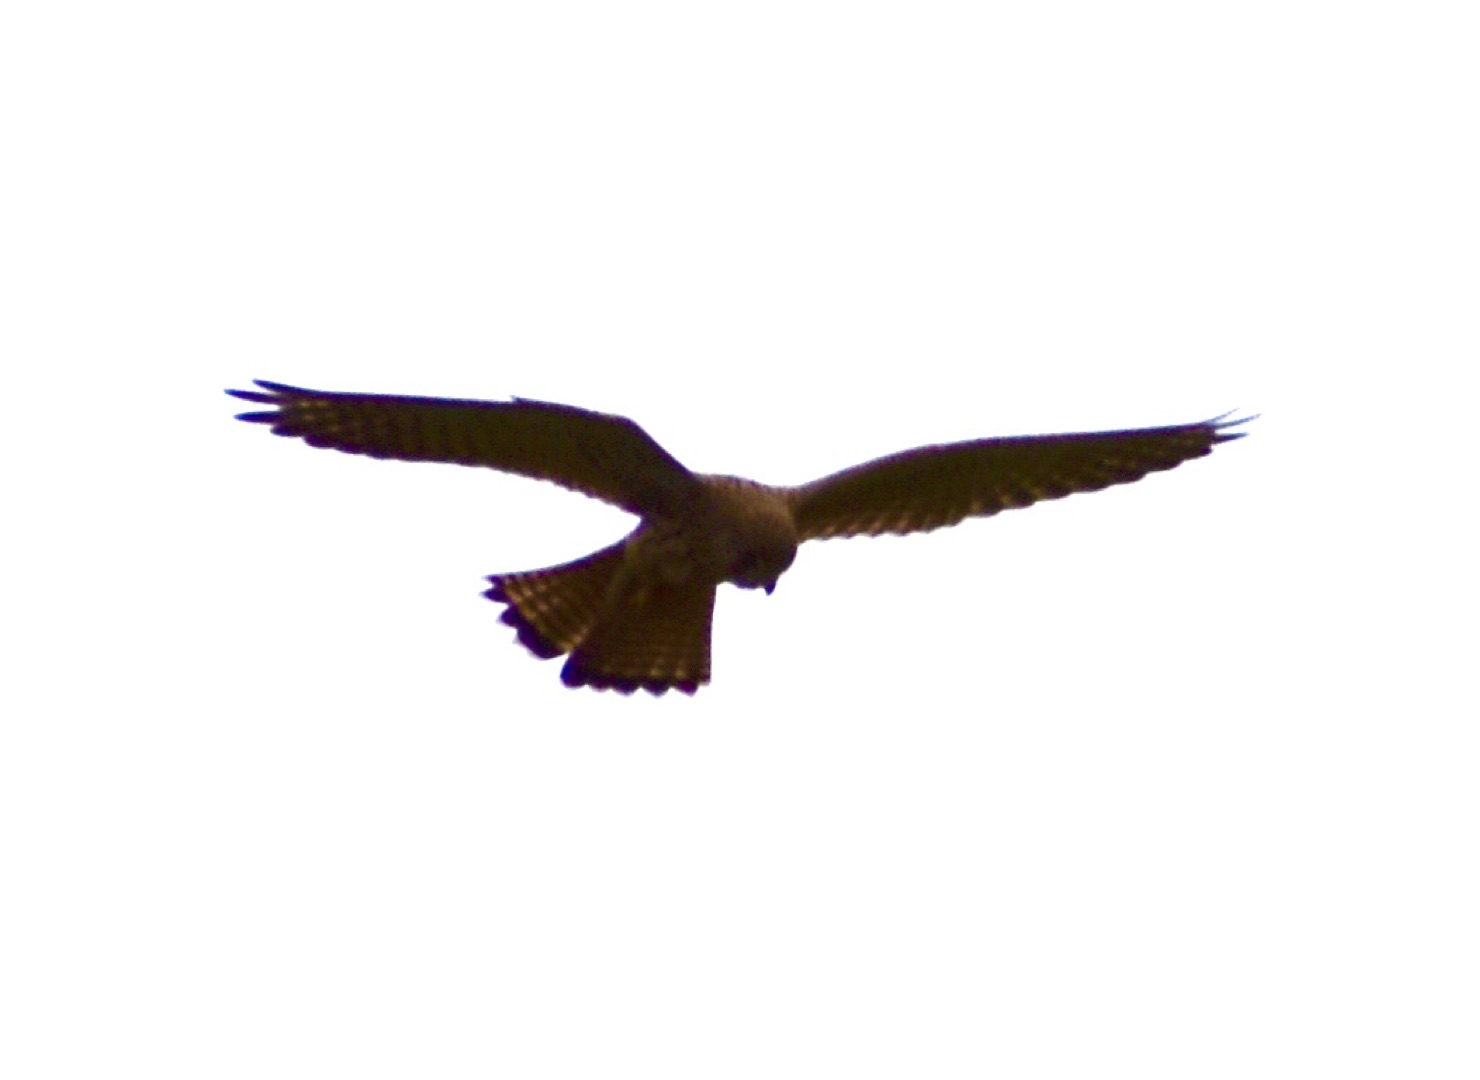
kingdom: Animalia
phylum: Chordata
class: Aves
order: Falconiformes
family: Falconidae
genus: Falco
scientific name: Falco tinnunculus
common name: Tårnfalk
